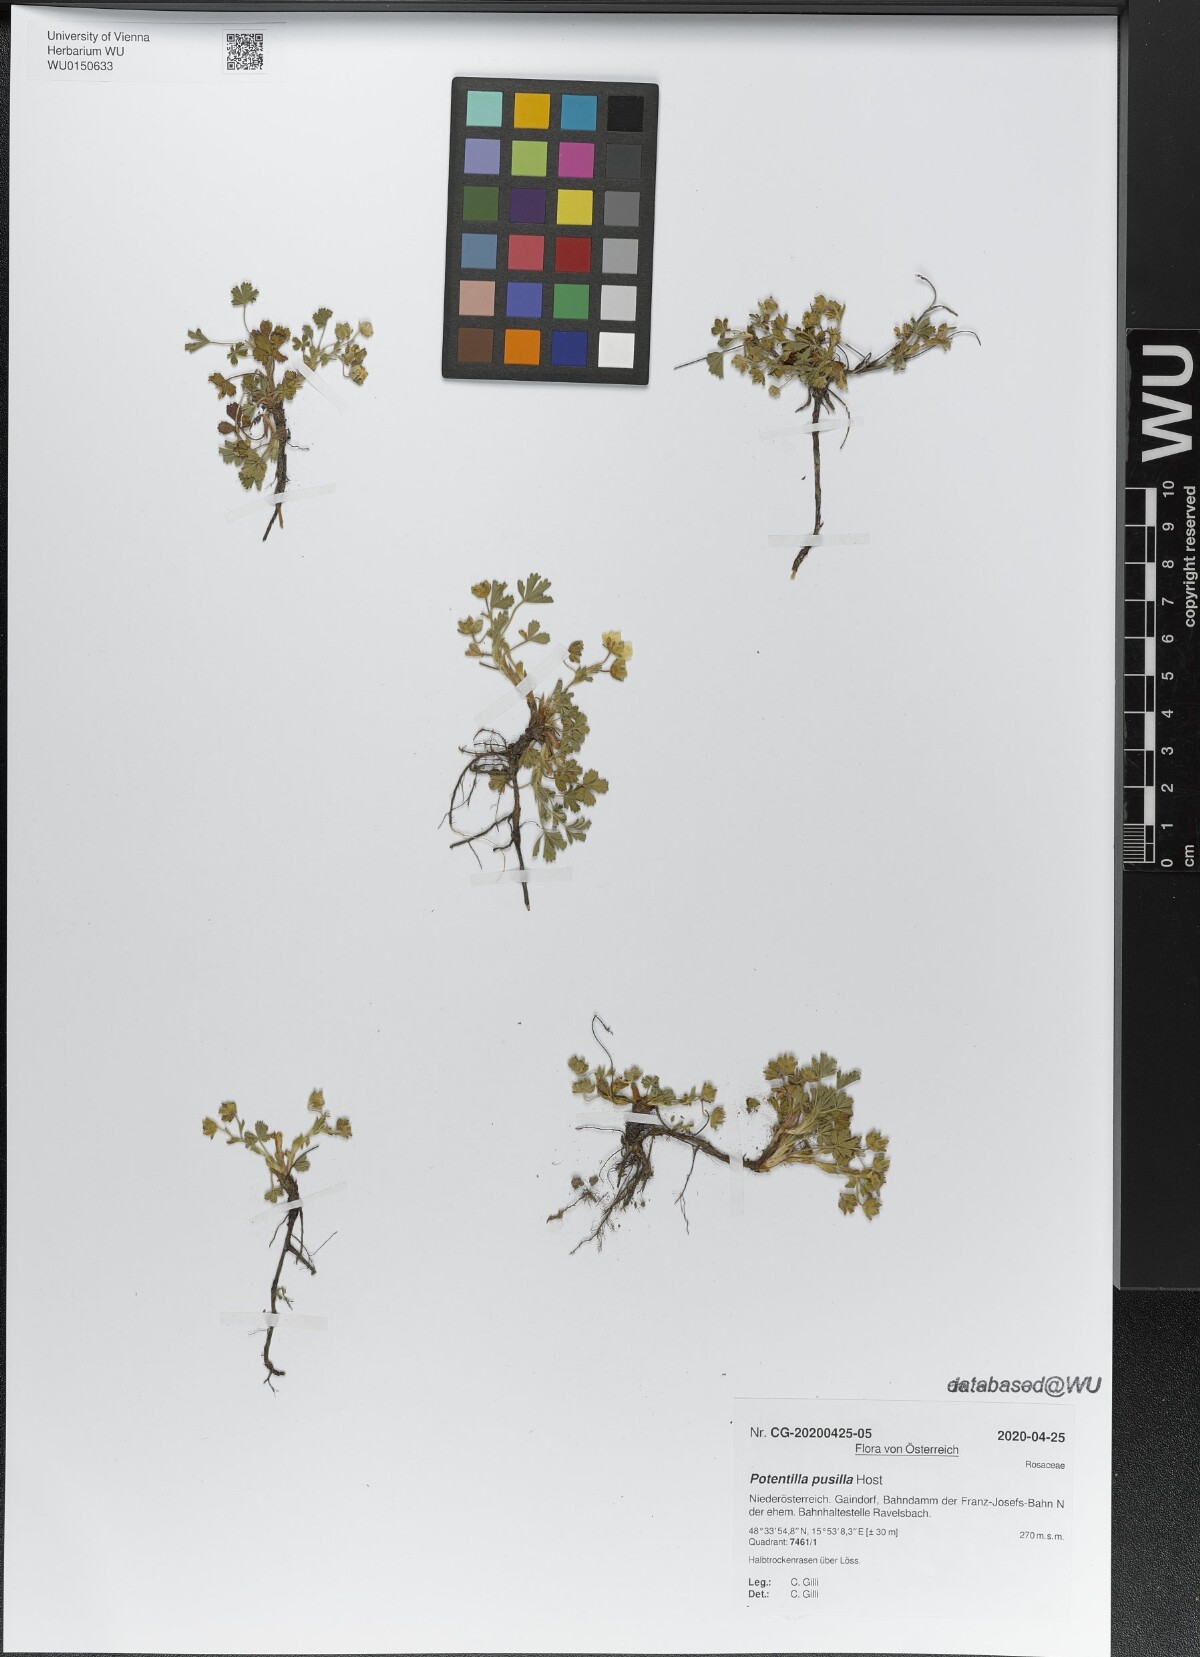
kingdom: Plantae
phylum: Tracheophyta
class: Magnoliopsida
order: Rosales
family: Rosaceae
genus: Potentilla
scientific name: Potentilla pusilla
